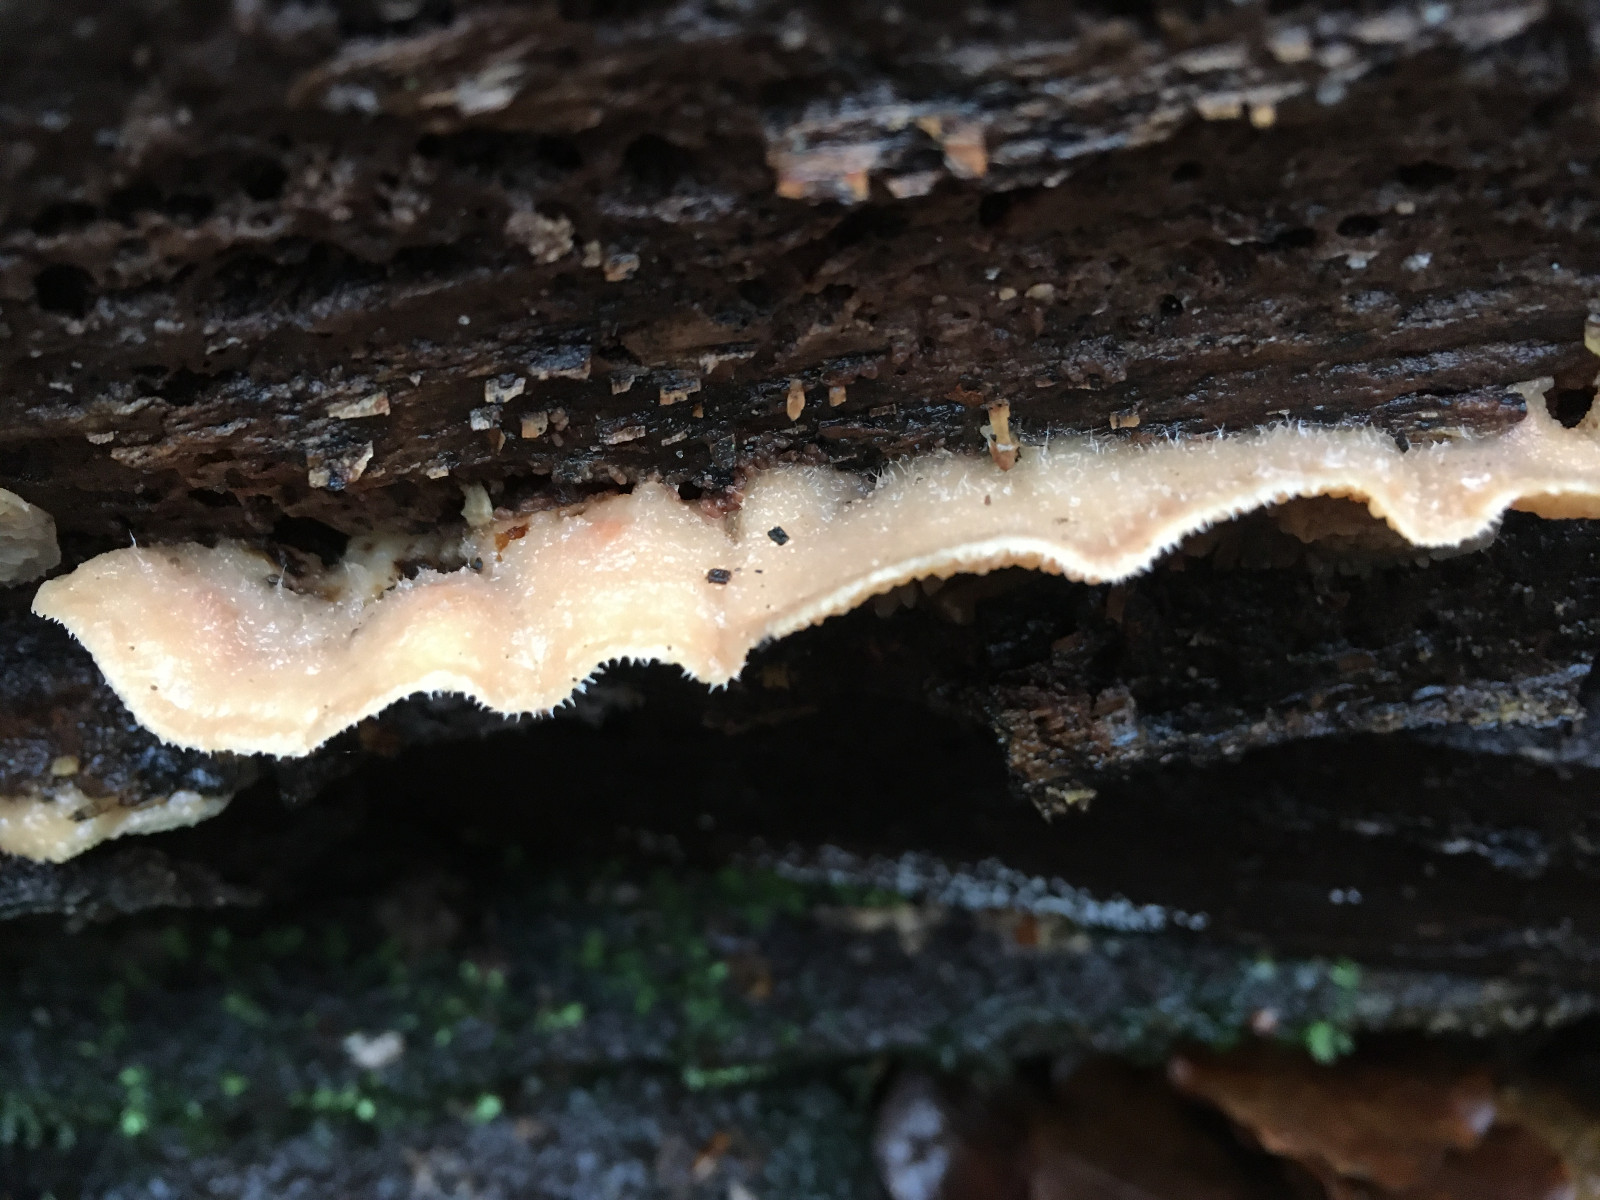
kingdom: Fungi
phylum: Basidiomycota
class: Agaricomycetes
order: Polyporales
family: Meruliaceae
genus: Phlebia
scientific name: Phlebia tremellosa
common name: bævrende åresvamp
